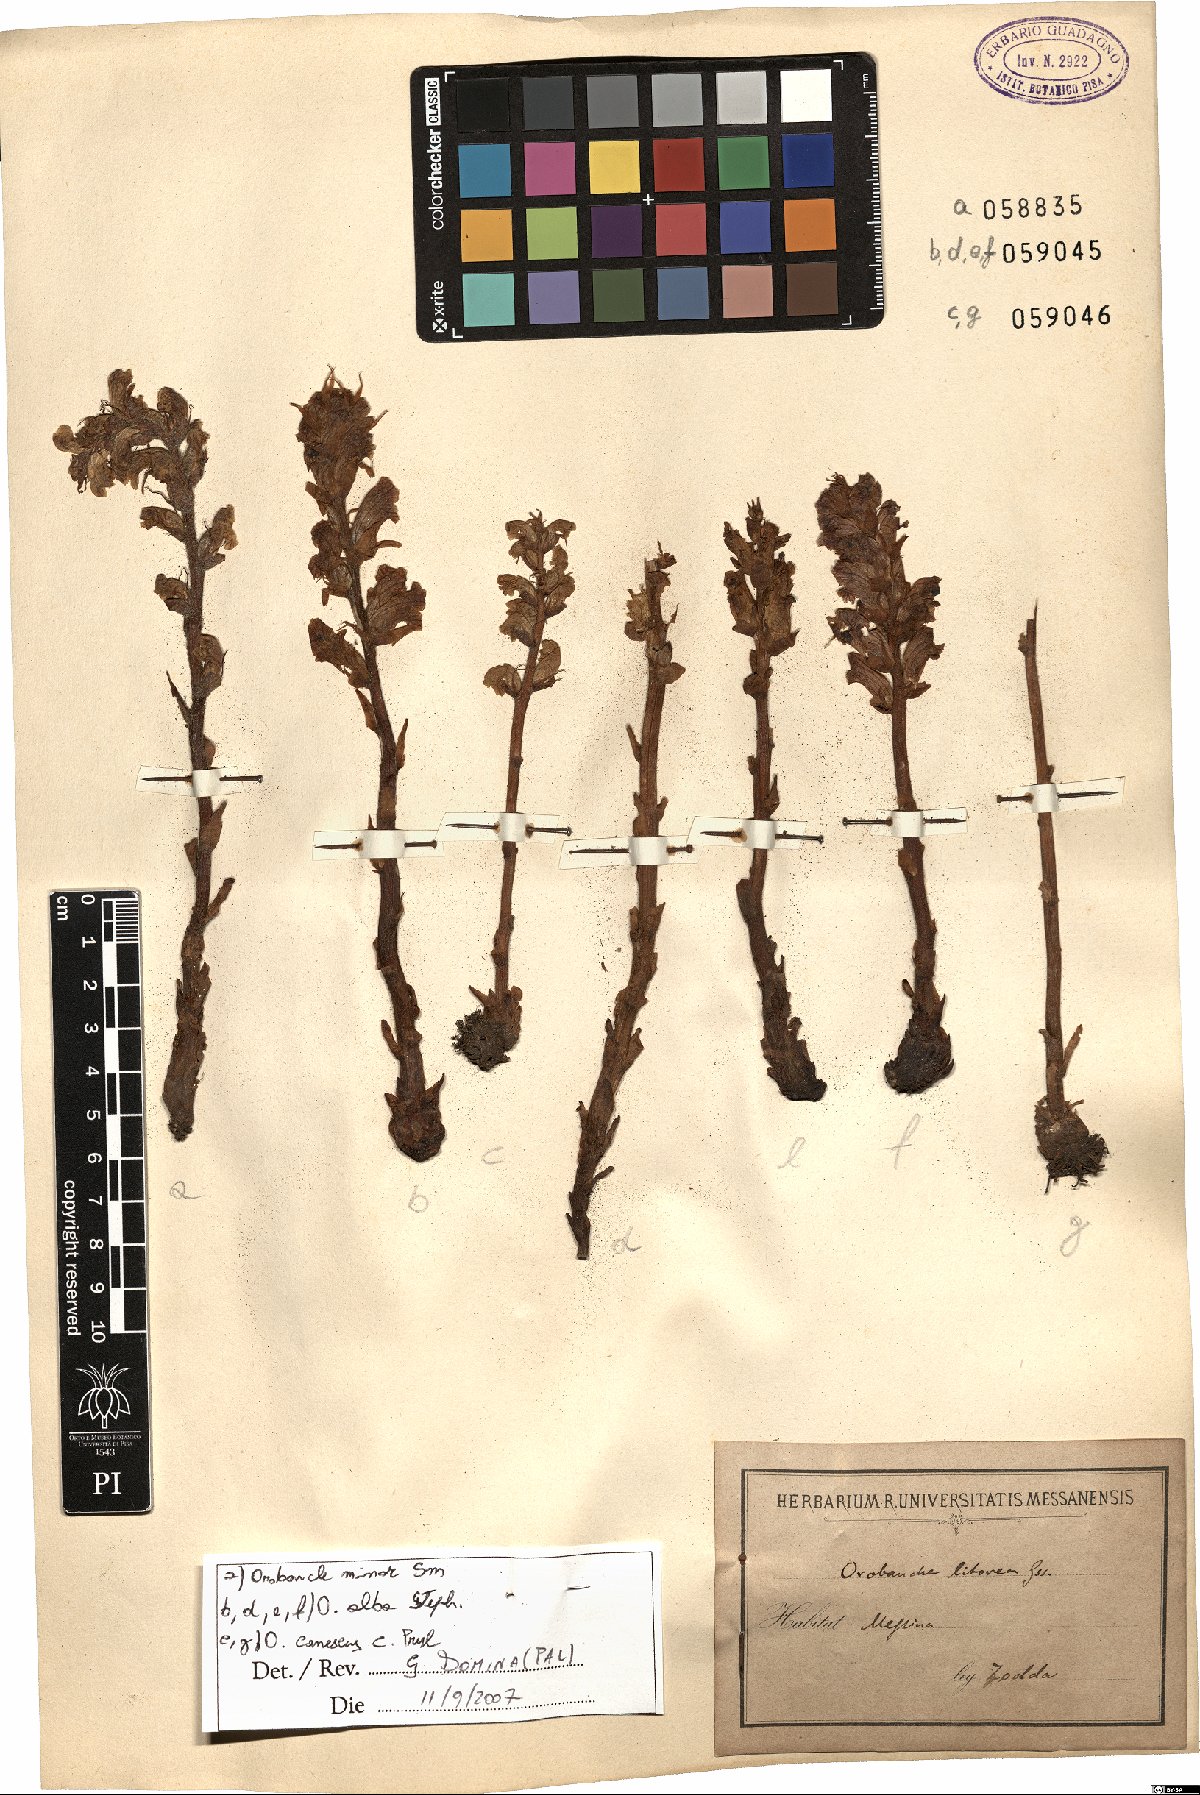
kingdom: Plantae
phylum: Tracheophyta
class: Magnoliopsida
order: Lamiales
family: Orobanchaceae
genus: Orobanche
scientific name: Orobanche canescens
